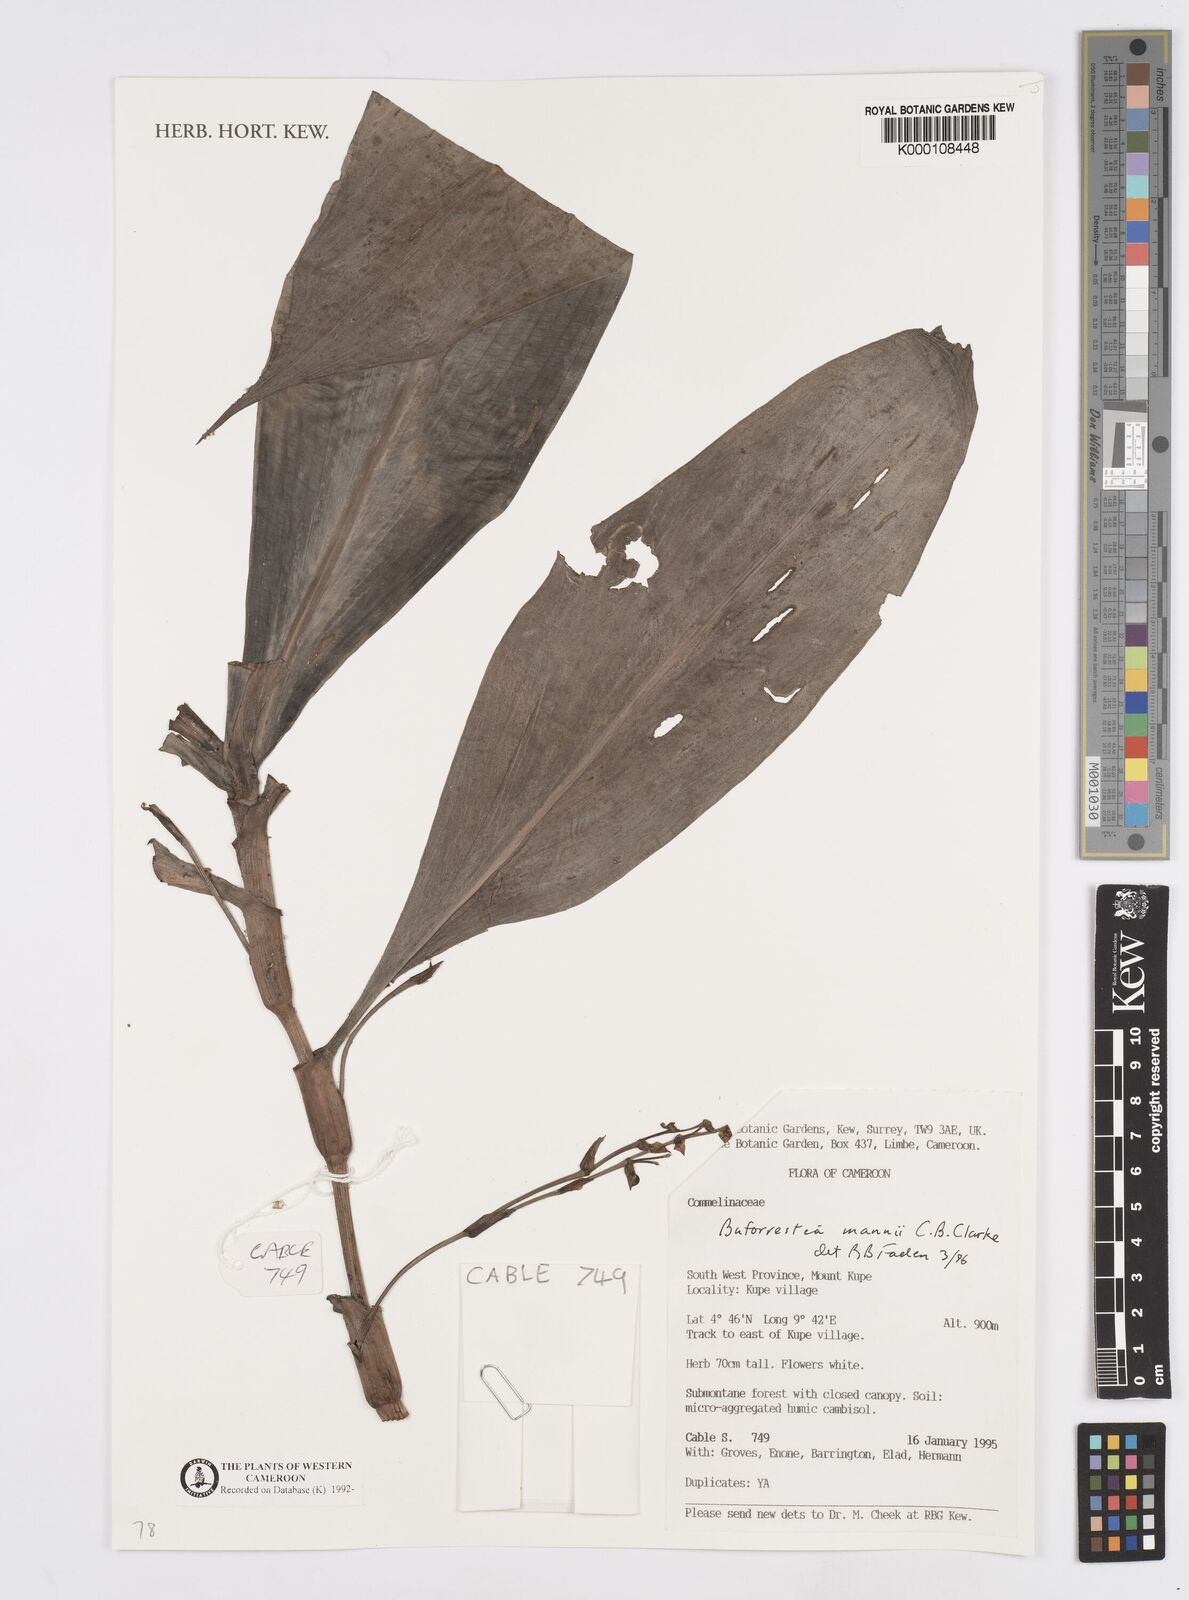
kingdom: Plantae
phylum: Tracheophyta
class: Liliopsida
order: Commelinales
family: Commelinaceae
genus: Buforrestia
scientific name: Buforrestia mannii
